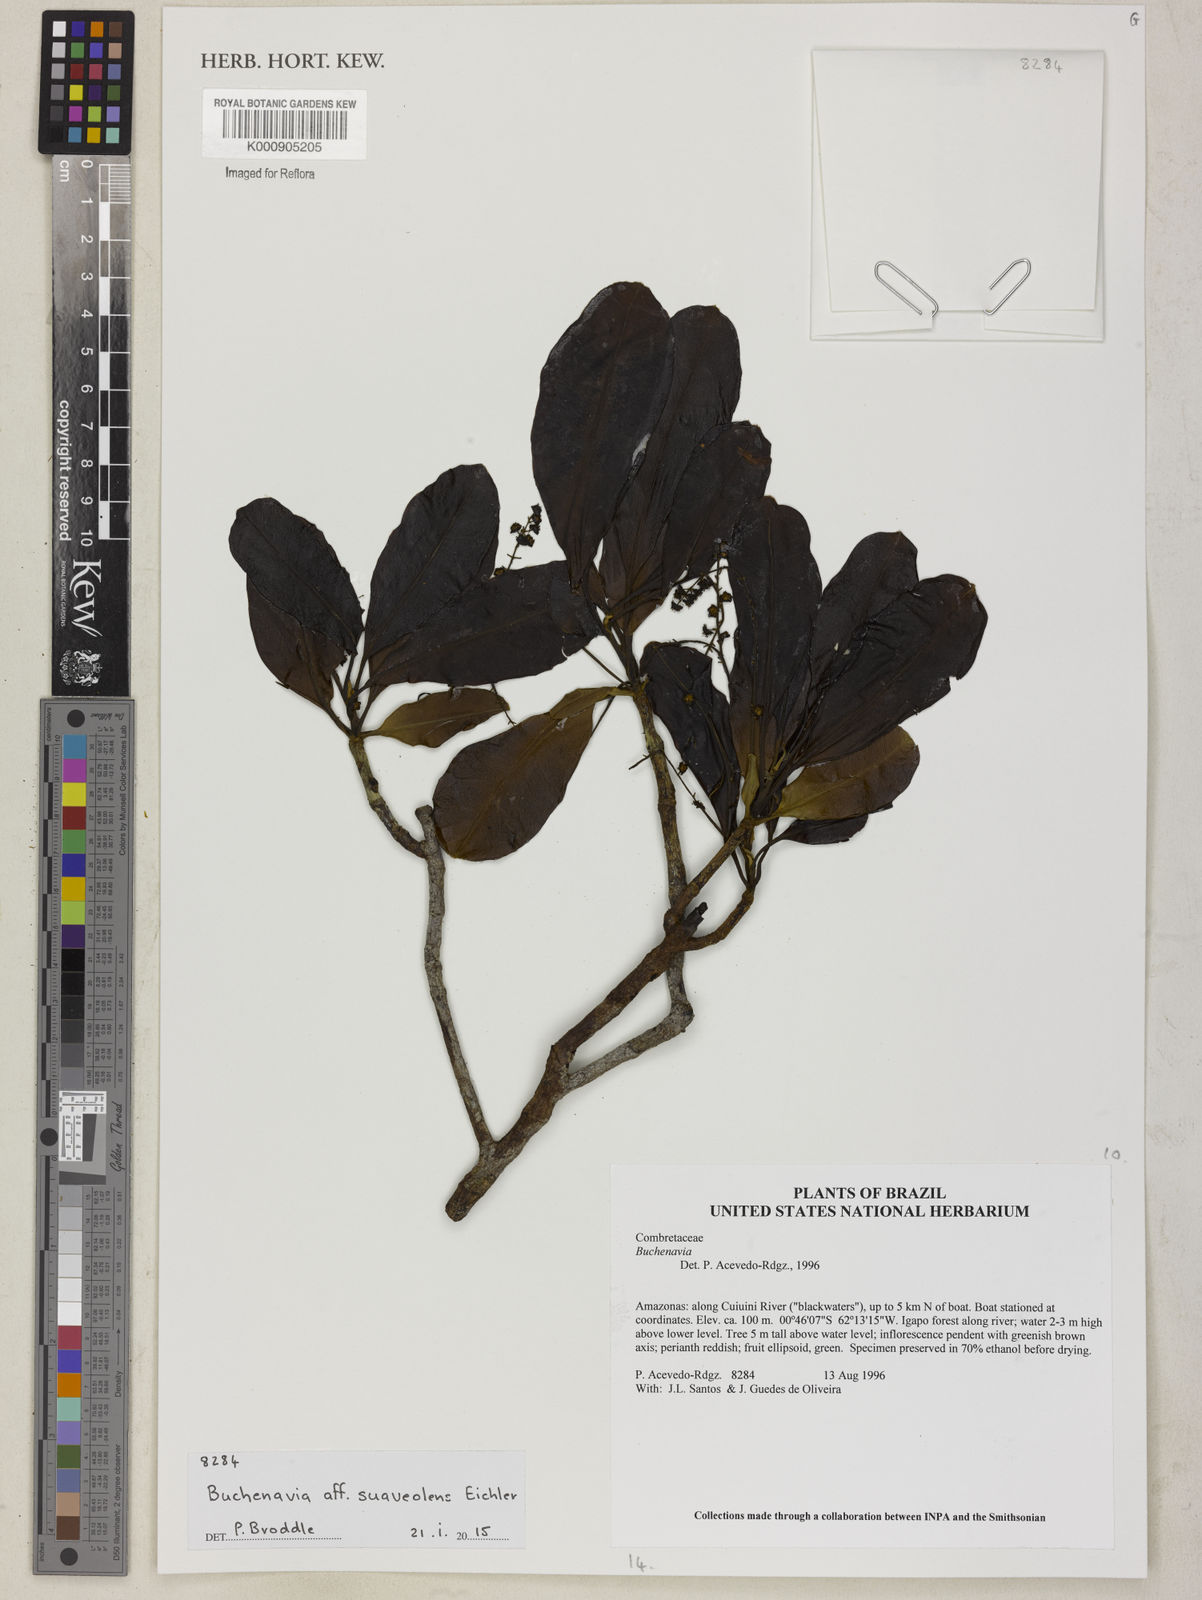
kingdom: Plantae
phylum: Tracheophyta
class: Magnoliopsida
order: Myrtales
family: Combretaceae
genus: Terminalia
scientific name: Terminalia suaveolens
